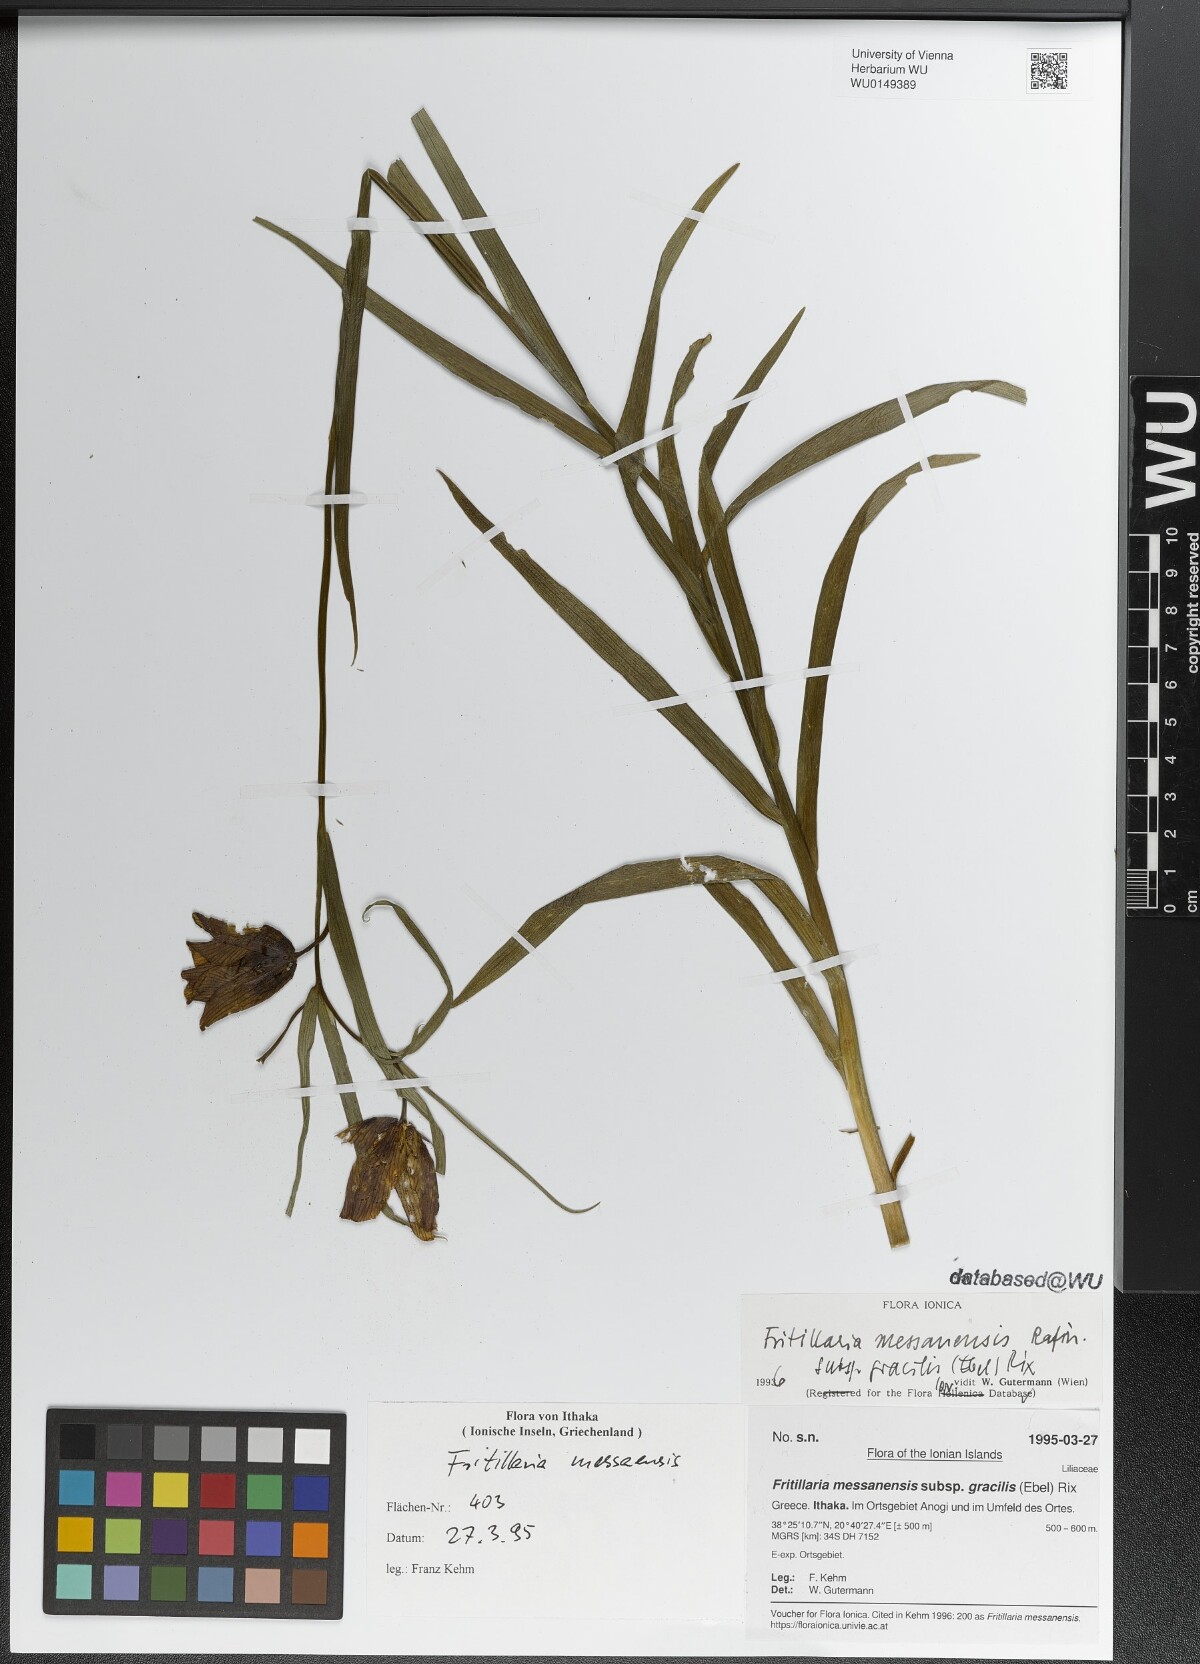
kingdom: Plantae
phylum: Tracheophyta
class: Liliopsida
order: Liliales
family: Liliaceae
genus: Fritillaria
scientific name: Fritillaria messanensis
